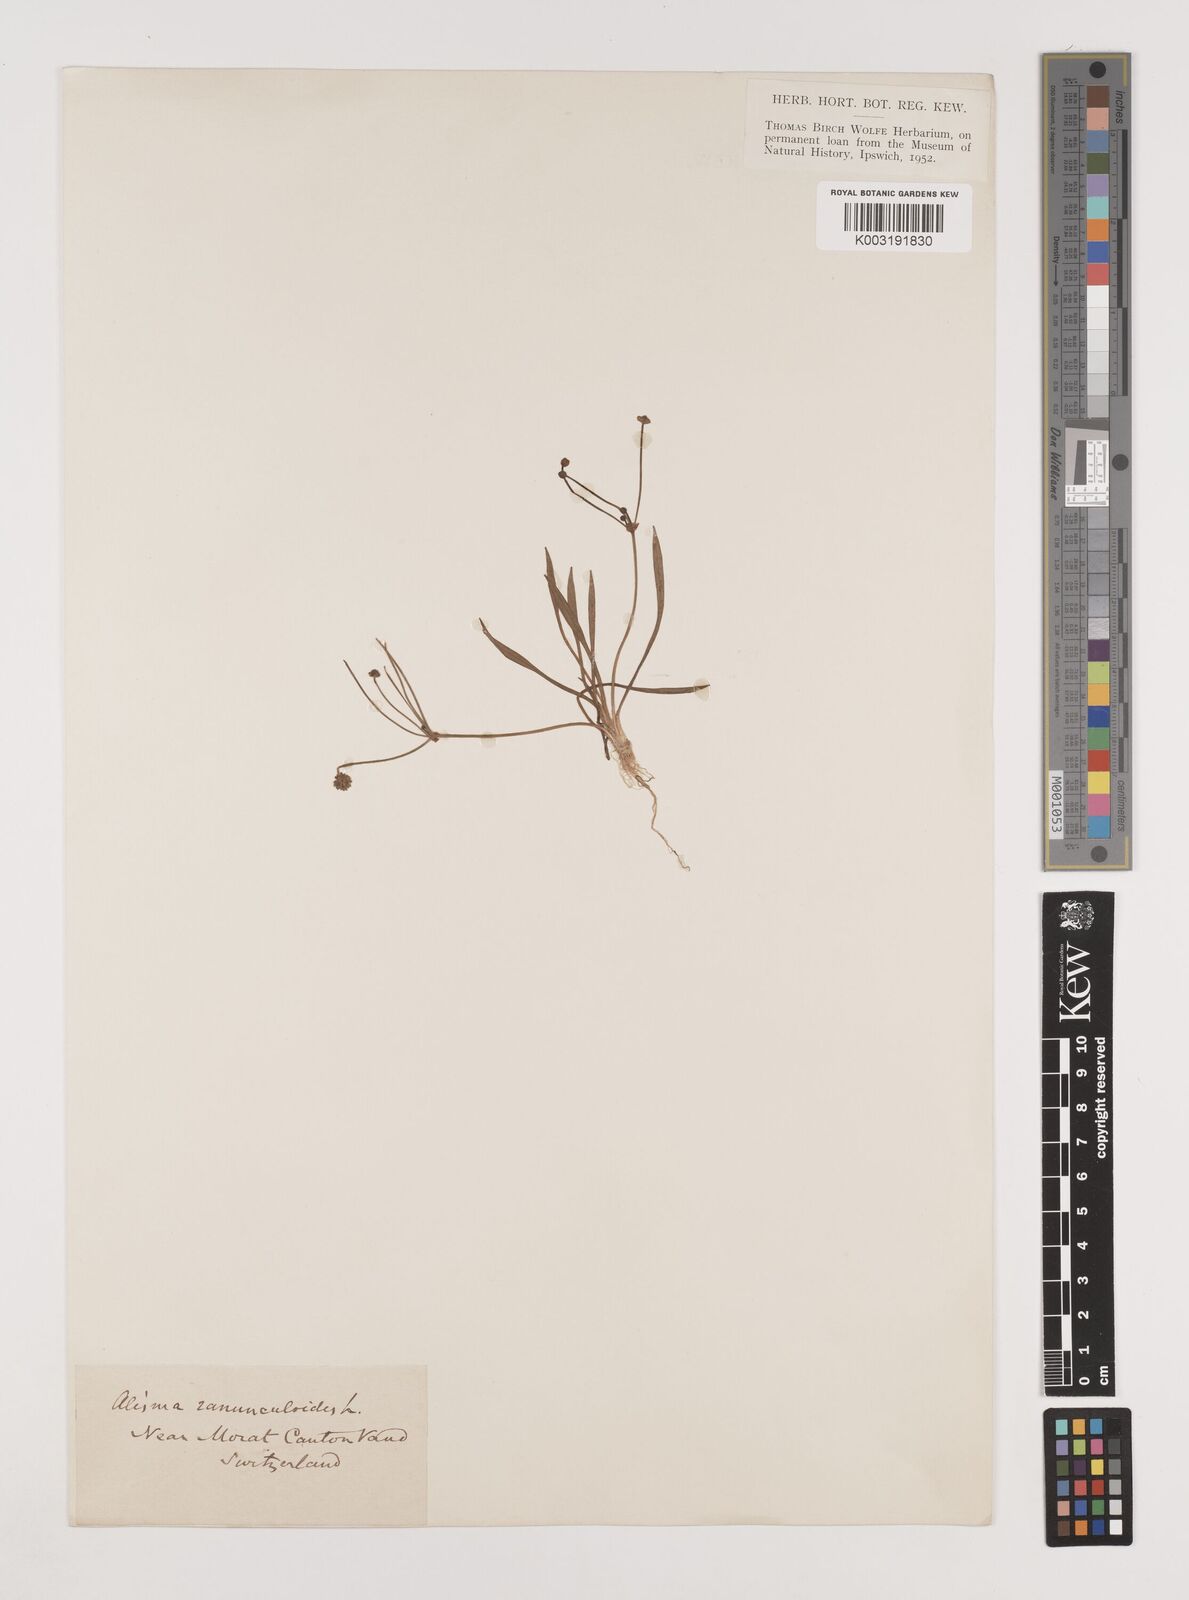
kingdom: Plantae
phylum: Tracheophyta
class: Liliopsida
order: Alismatales
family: Alismataceae
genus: Baldellia
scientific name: Baldellia ranunculoides
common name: Lesser water-plantain
